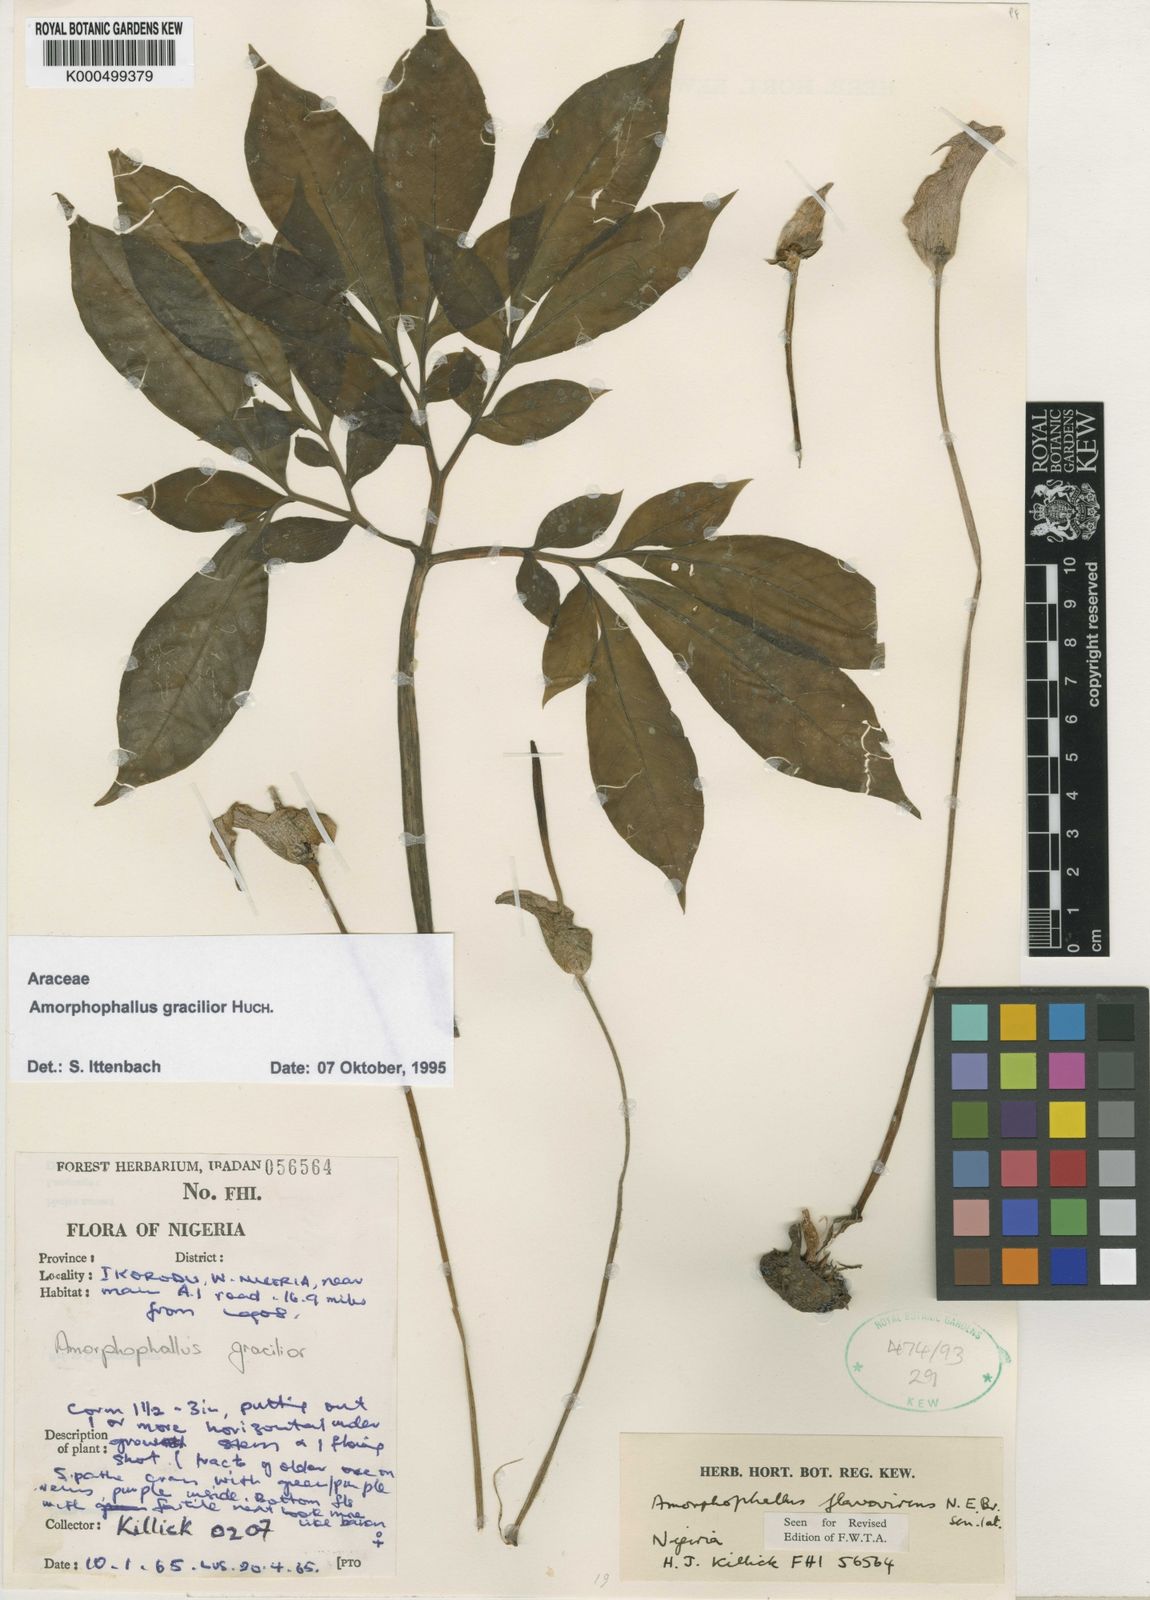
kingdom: Plantae
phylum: Tracheophyta
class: Liliopsida
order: Alismatales
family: Araceae
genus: Amorphophallus
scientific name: Amorphophallus
